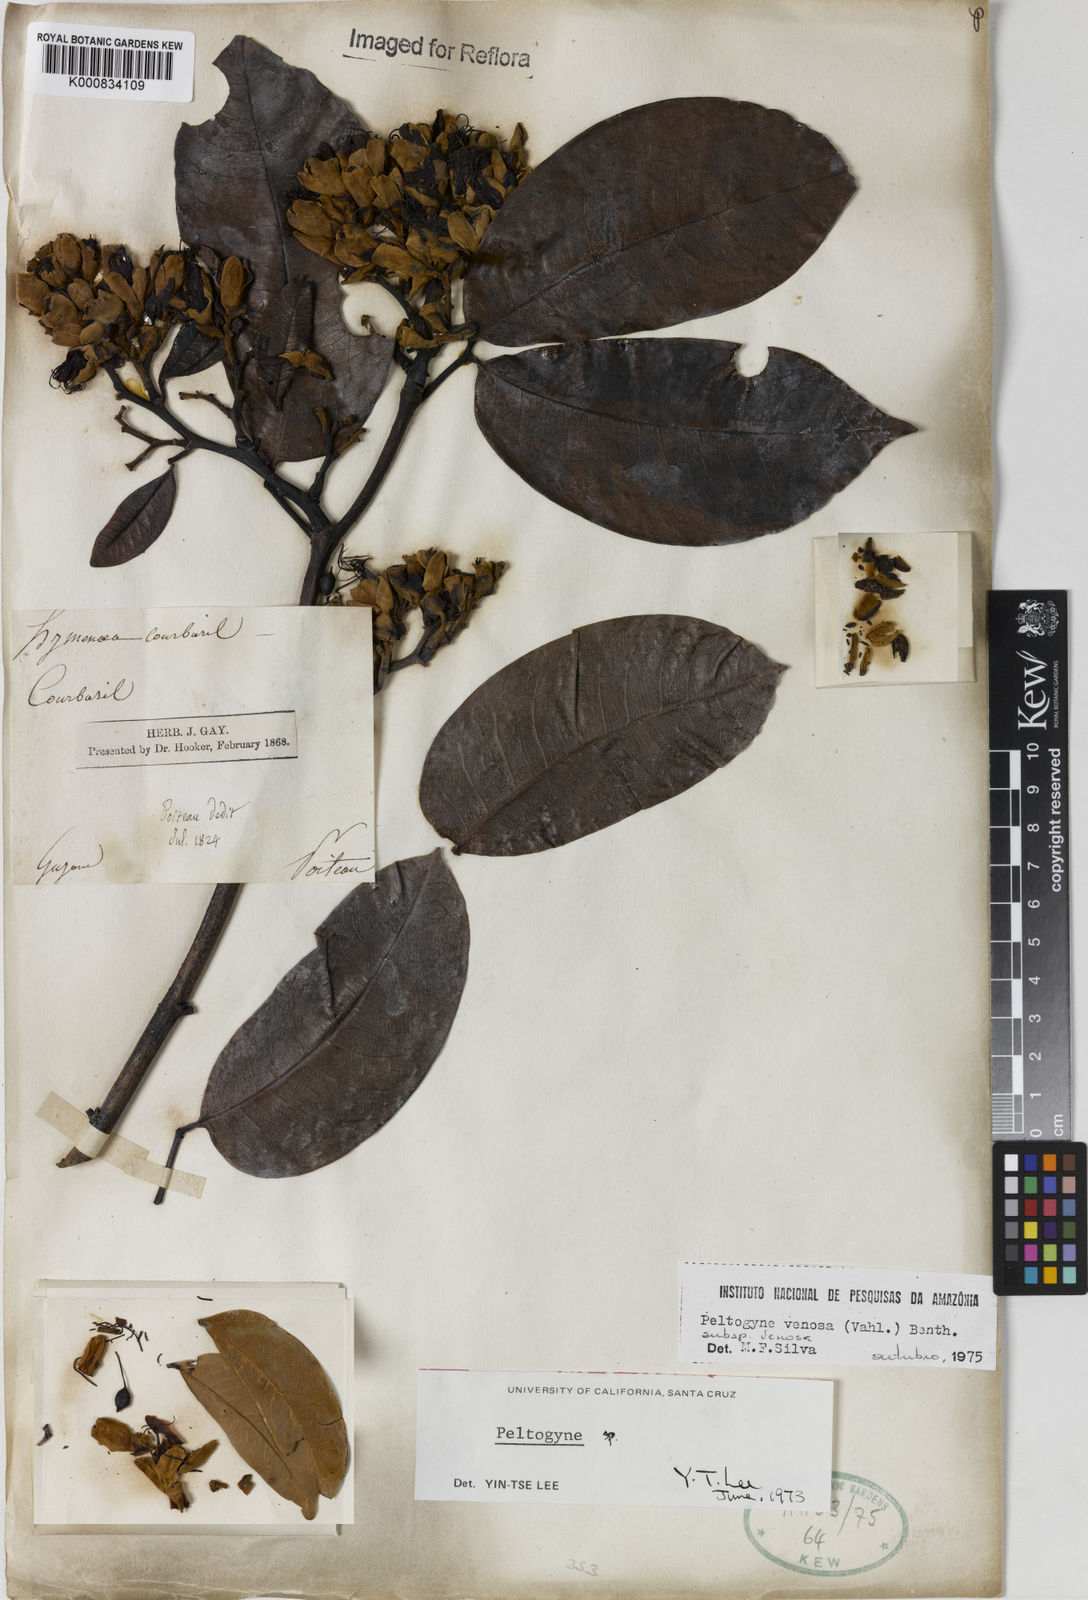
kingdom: Plantae
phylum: Tracheophyta
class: Magnoliopsida
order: Fabales
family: Fabaceae
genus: Peltogyne
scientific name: Peltogyne venosa
